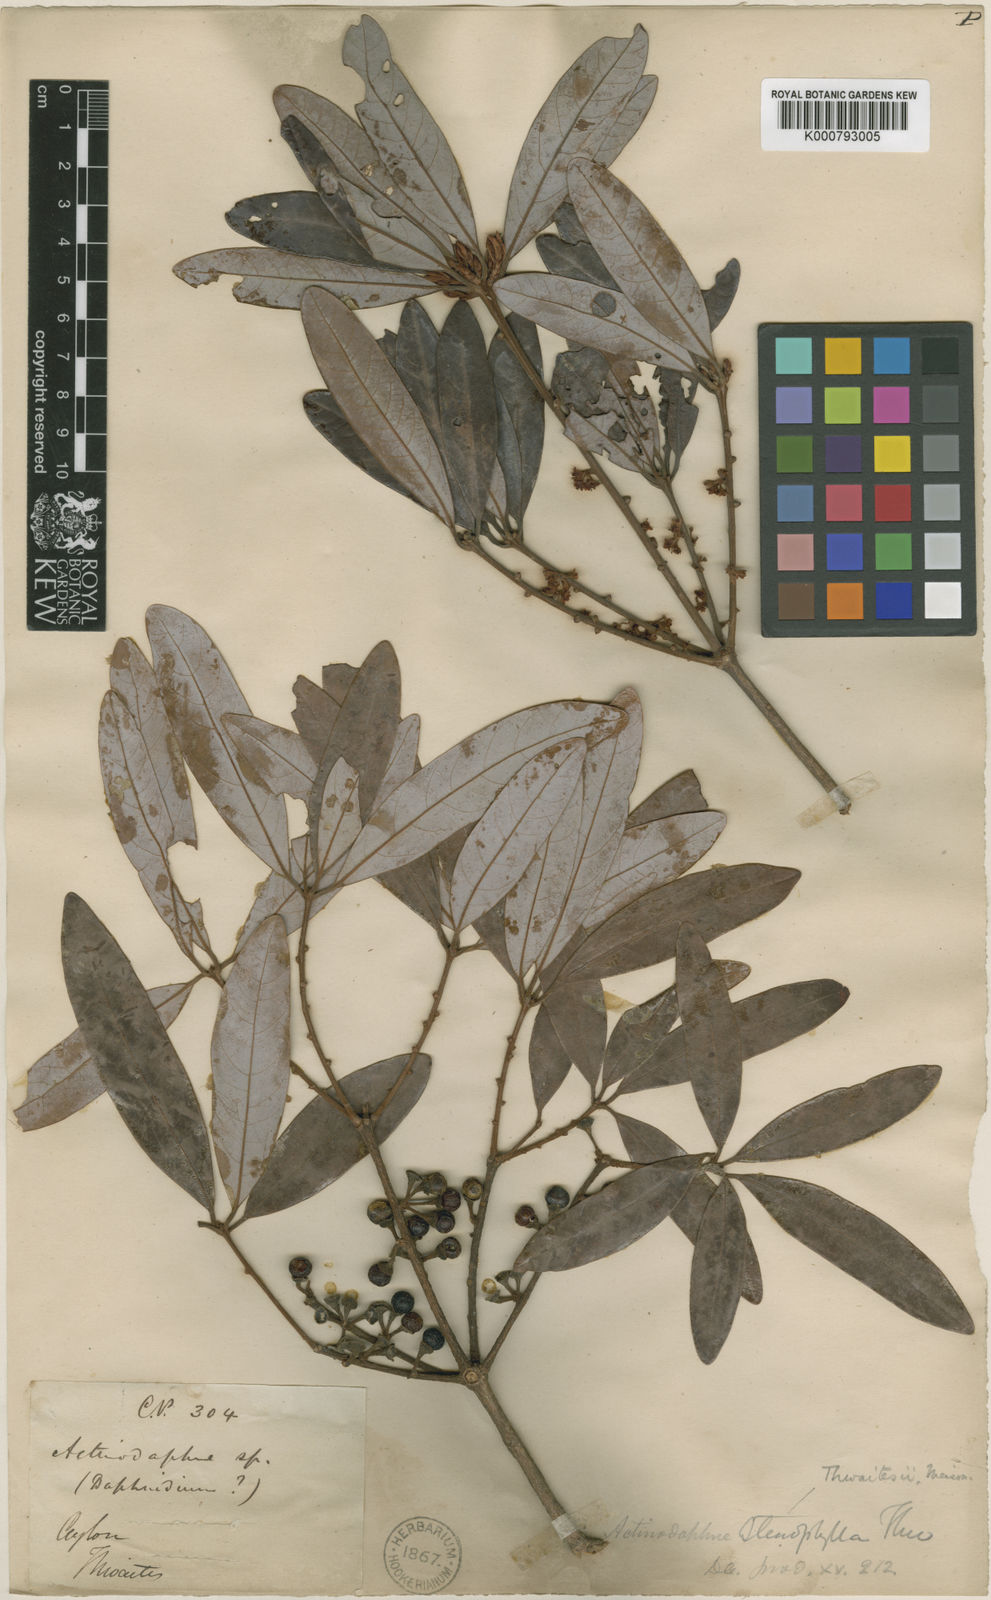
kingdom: Plantae
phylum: Tracheophyta
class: Magnoliopsida
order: Laurales
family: Lauraceae
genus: Actinodaphne
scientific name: Actinodaphne stenophylla
